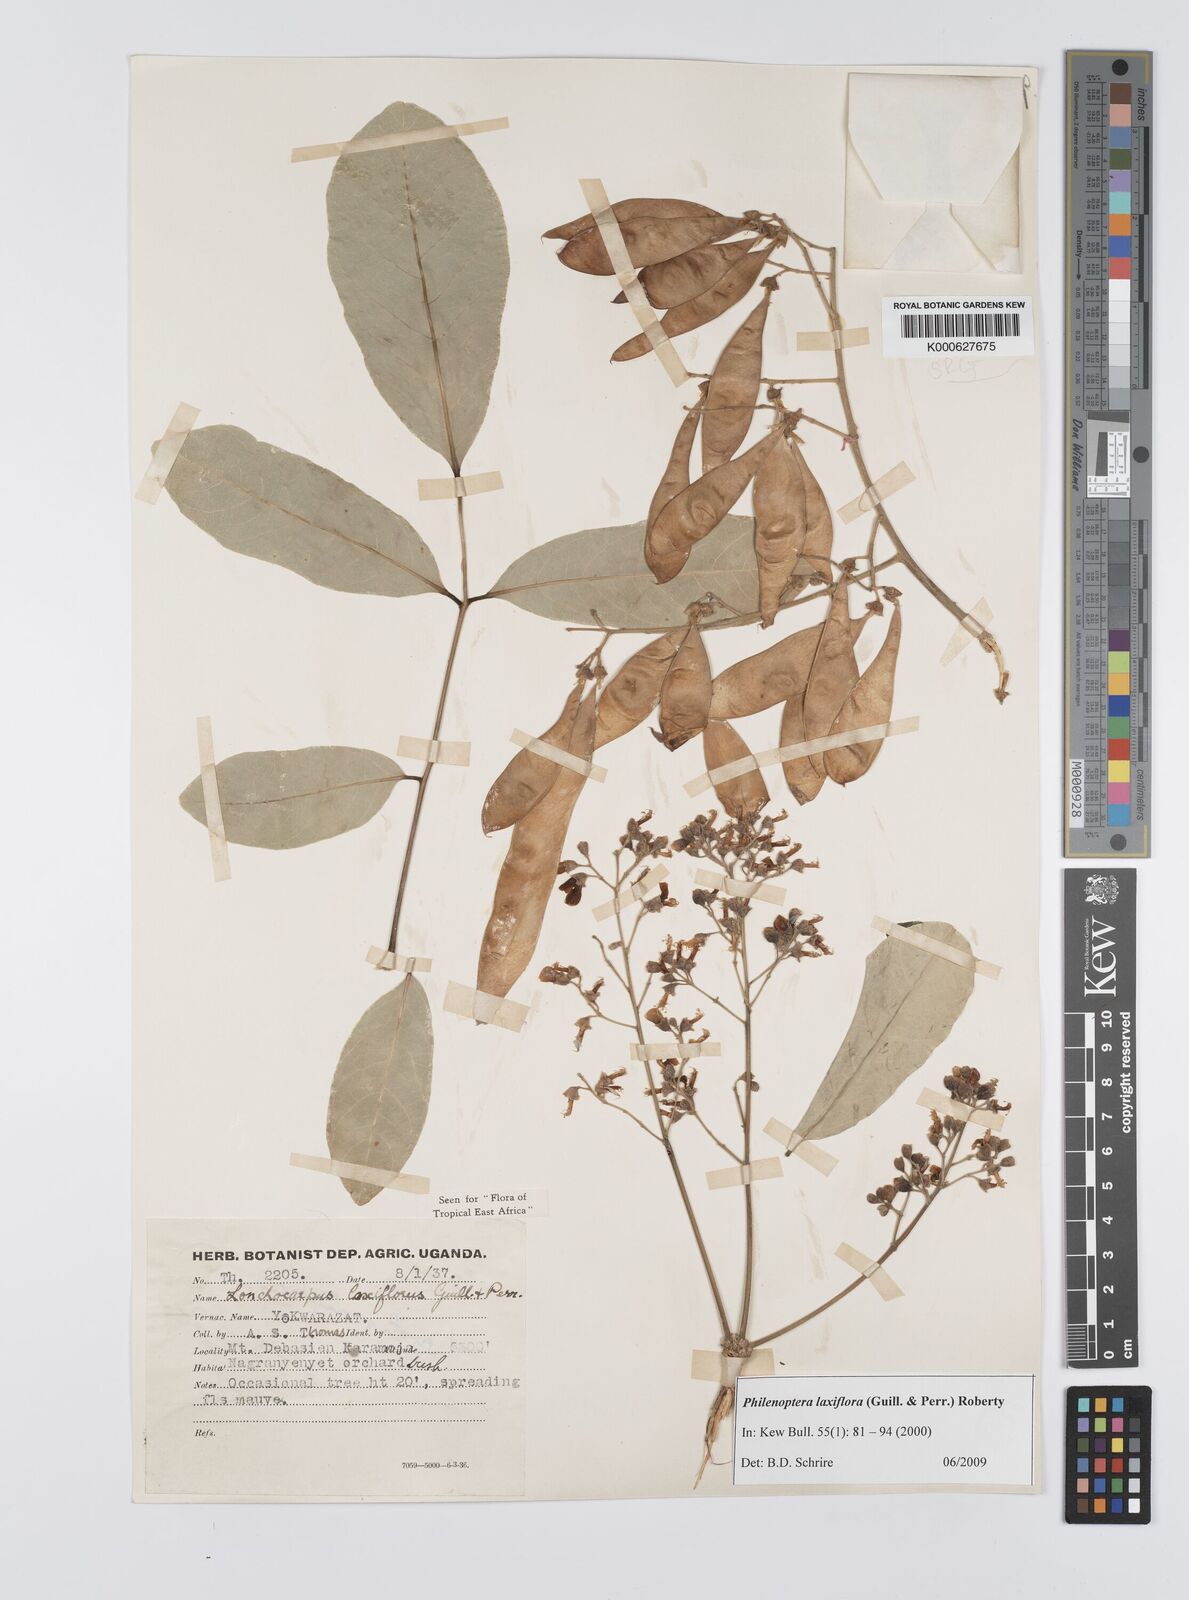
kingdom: Plantae
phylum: Tracheophyta
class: Magnoliopsida
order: Fabales
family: Fabaceae
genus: Philenoptera
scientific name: Philenoptera laxiflora
